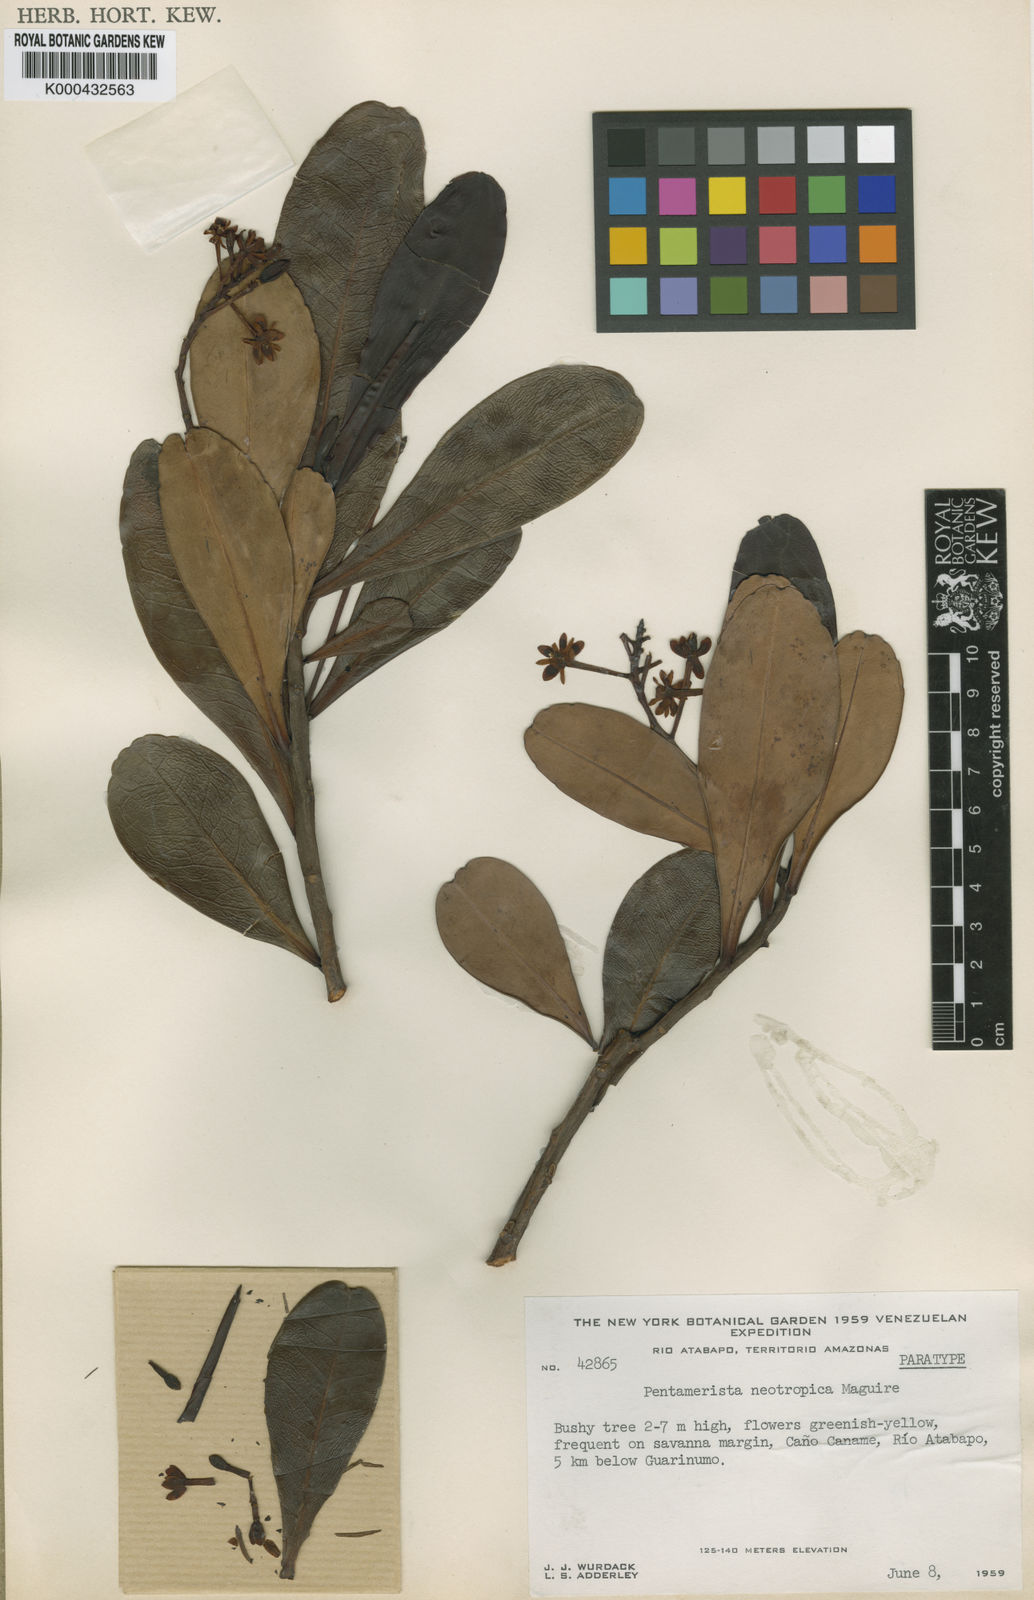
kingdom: Plantae
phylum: Tracheophyta
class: Magnoliopsida
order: Ericales
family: Tetrameristaceae
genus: Pentamerista
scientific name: Pentamerista neotropica
